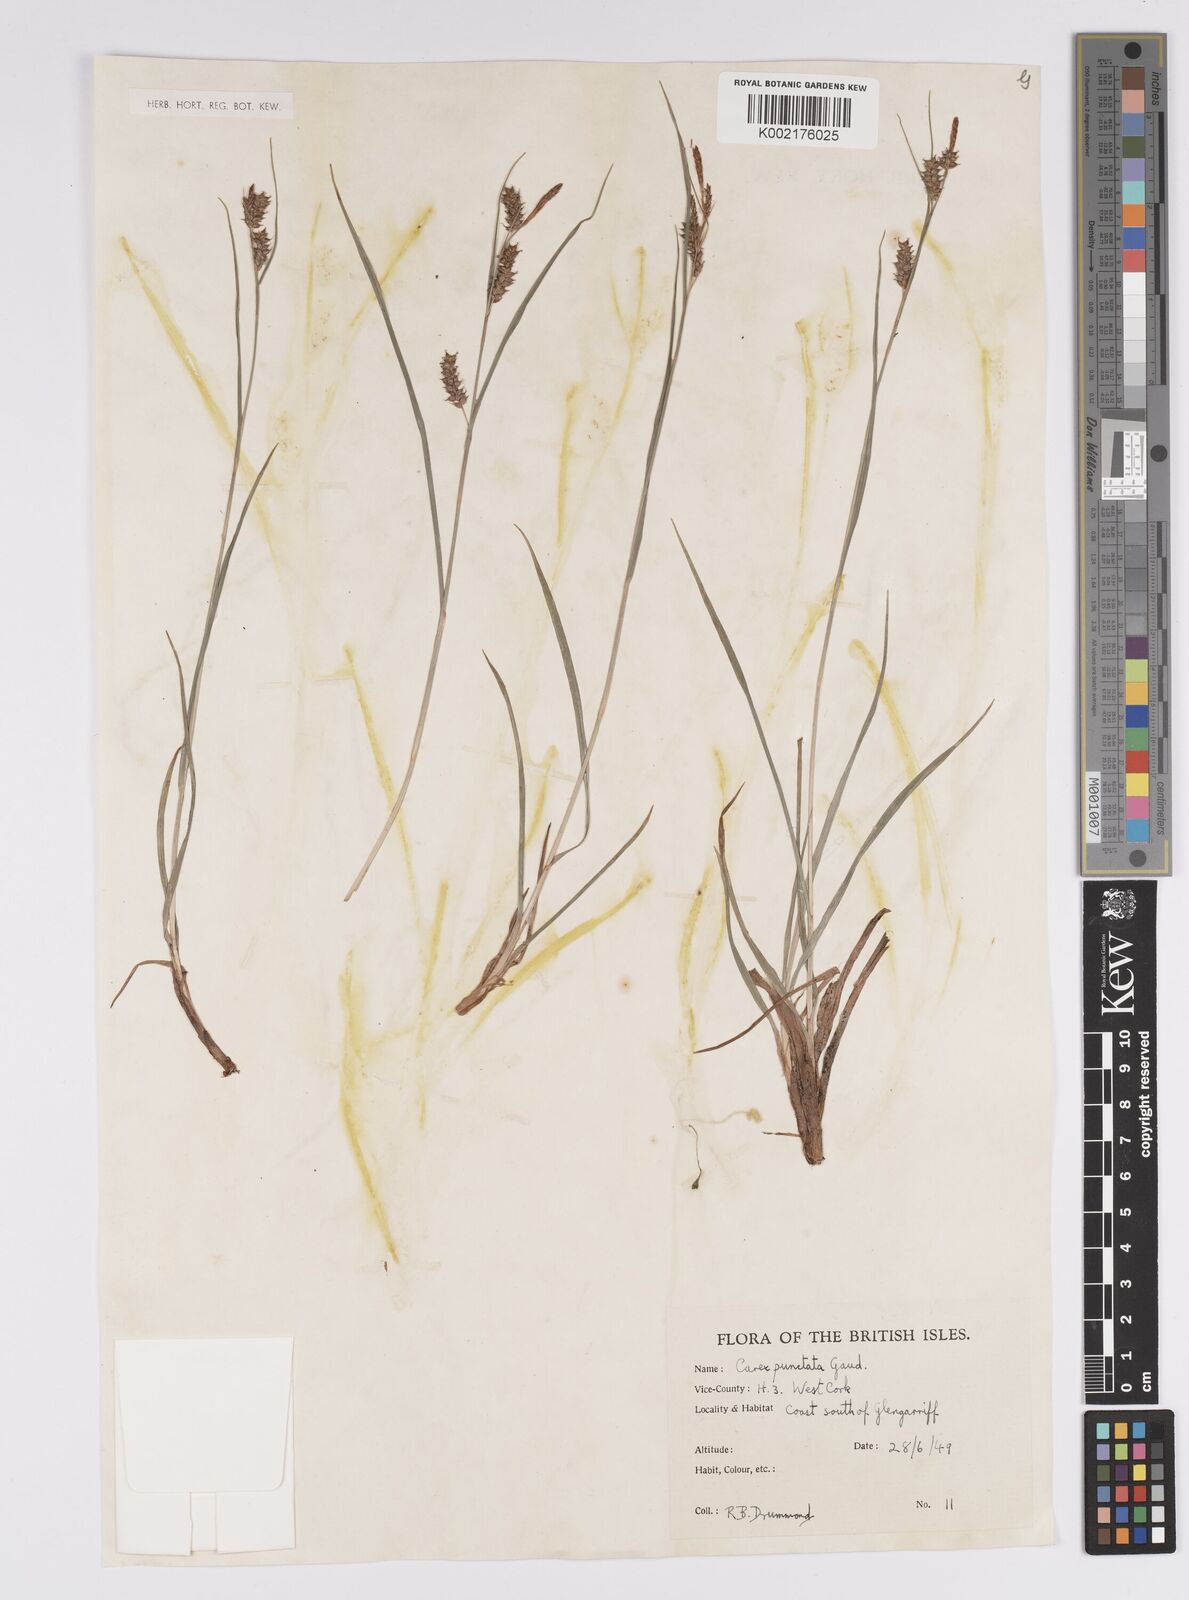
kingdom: Plantae
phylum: Tracheophyta
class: Liliopsida
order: Poales
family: Cyperaceae
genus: Carex
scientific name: Carex punctata
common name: Dotted sedge
